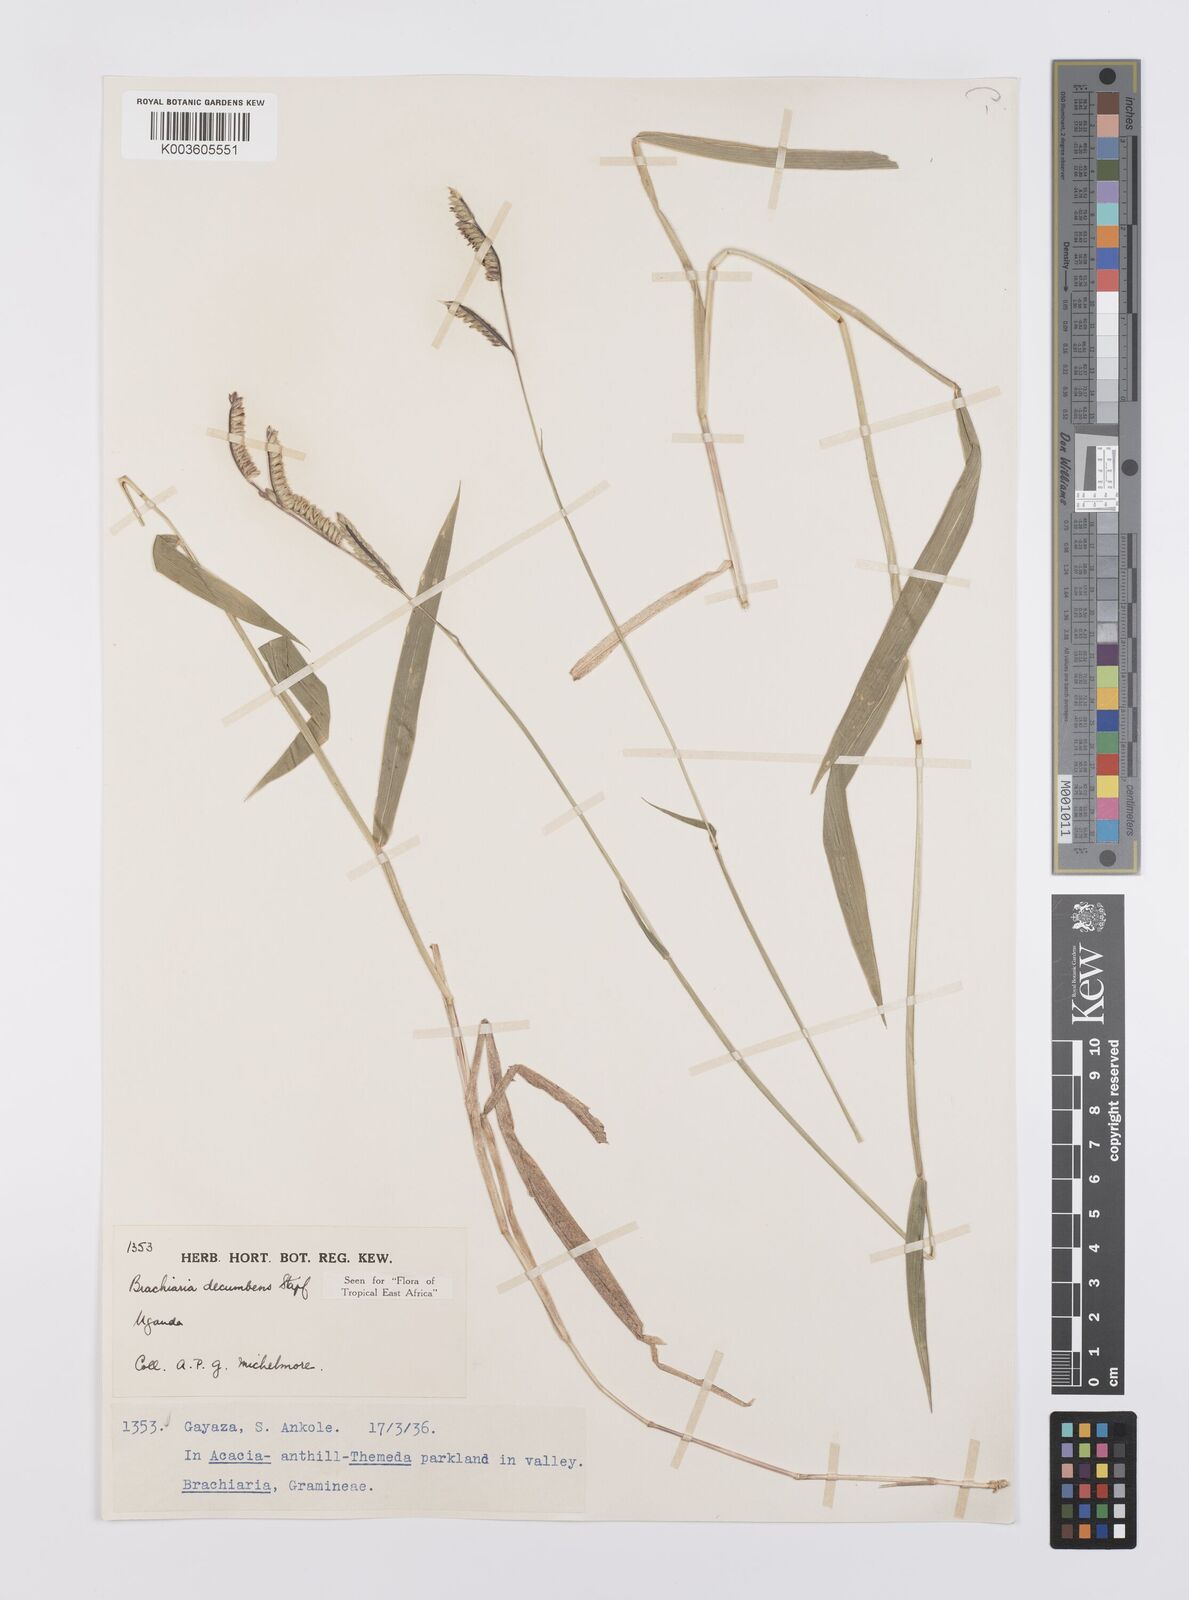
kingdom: Plantae
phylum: Tracheophyta
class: Liliopsida
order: Poales
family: Poaceae
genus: Urochloa
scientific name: Urochloa eminii
